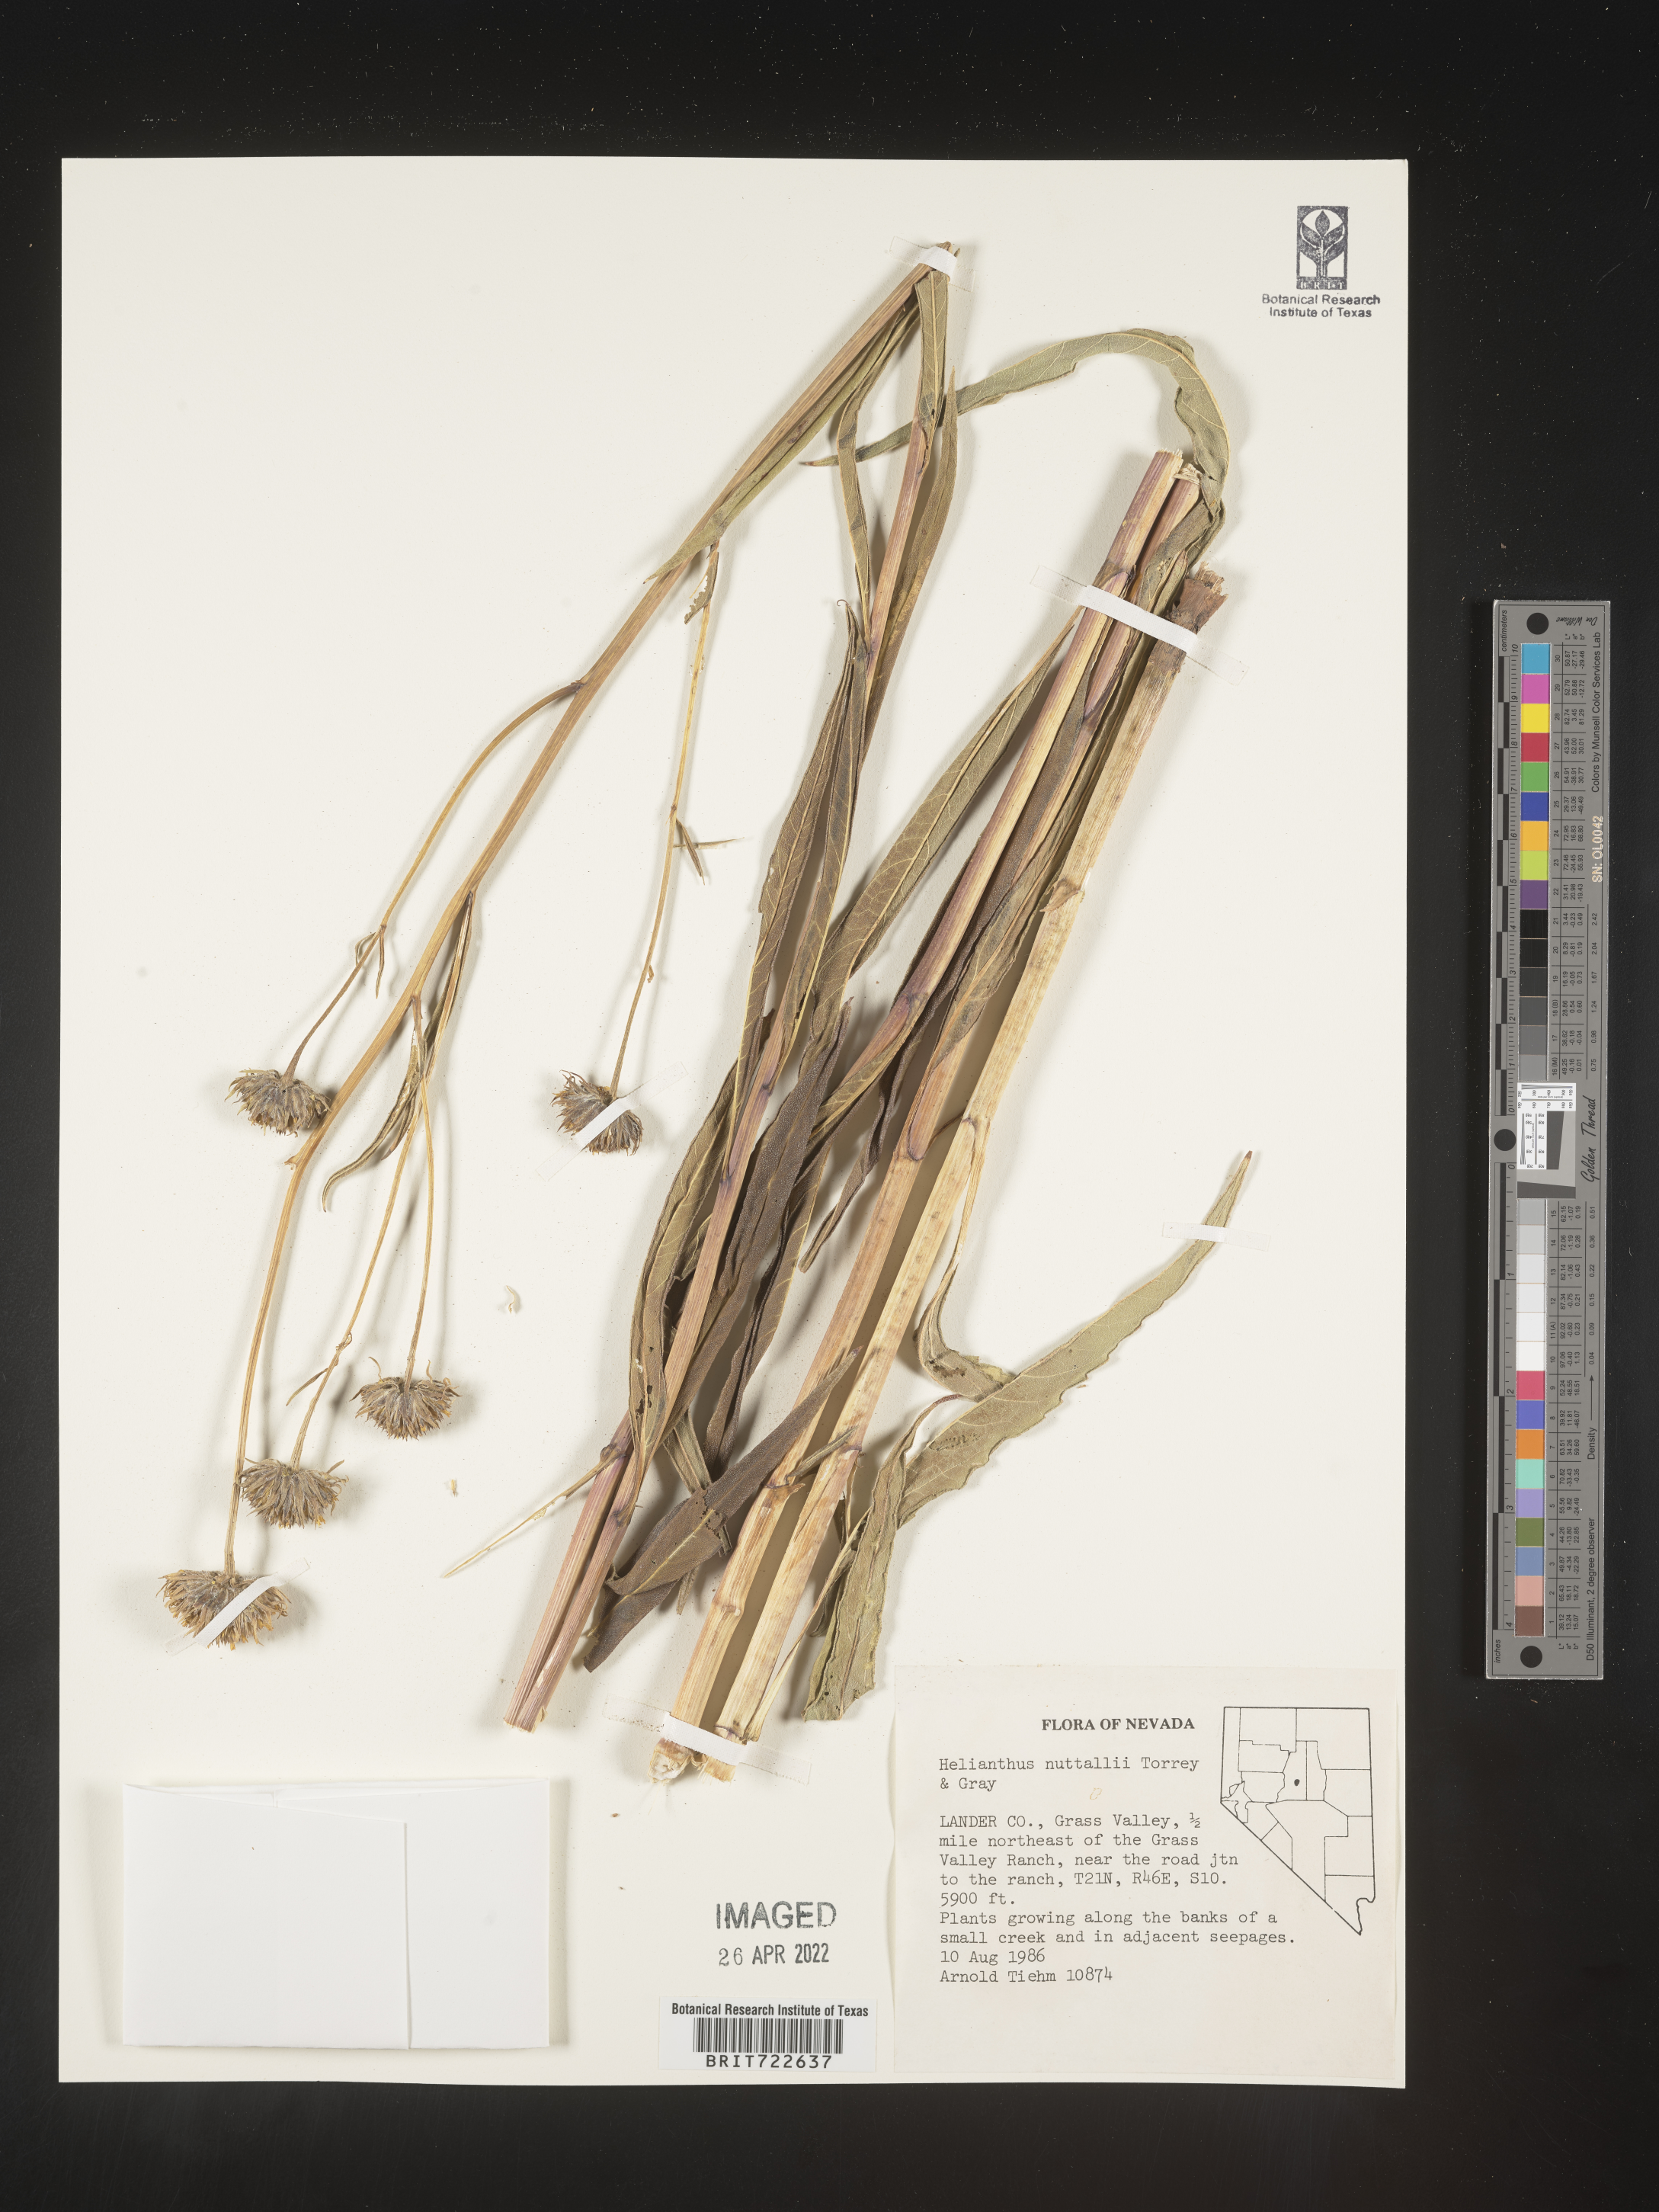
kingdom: Plantae
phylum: Tracheophyta
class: Magnoliopsida
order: Asterales
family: Asteraceae
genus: Helianthus
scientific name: Helianthus nuttallii
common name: Nuttall's sunflower
